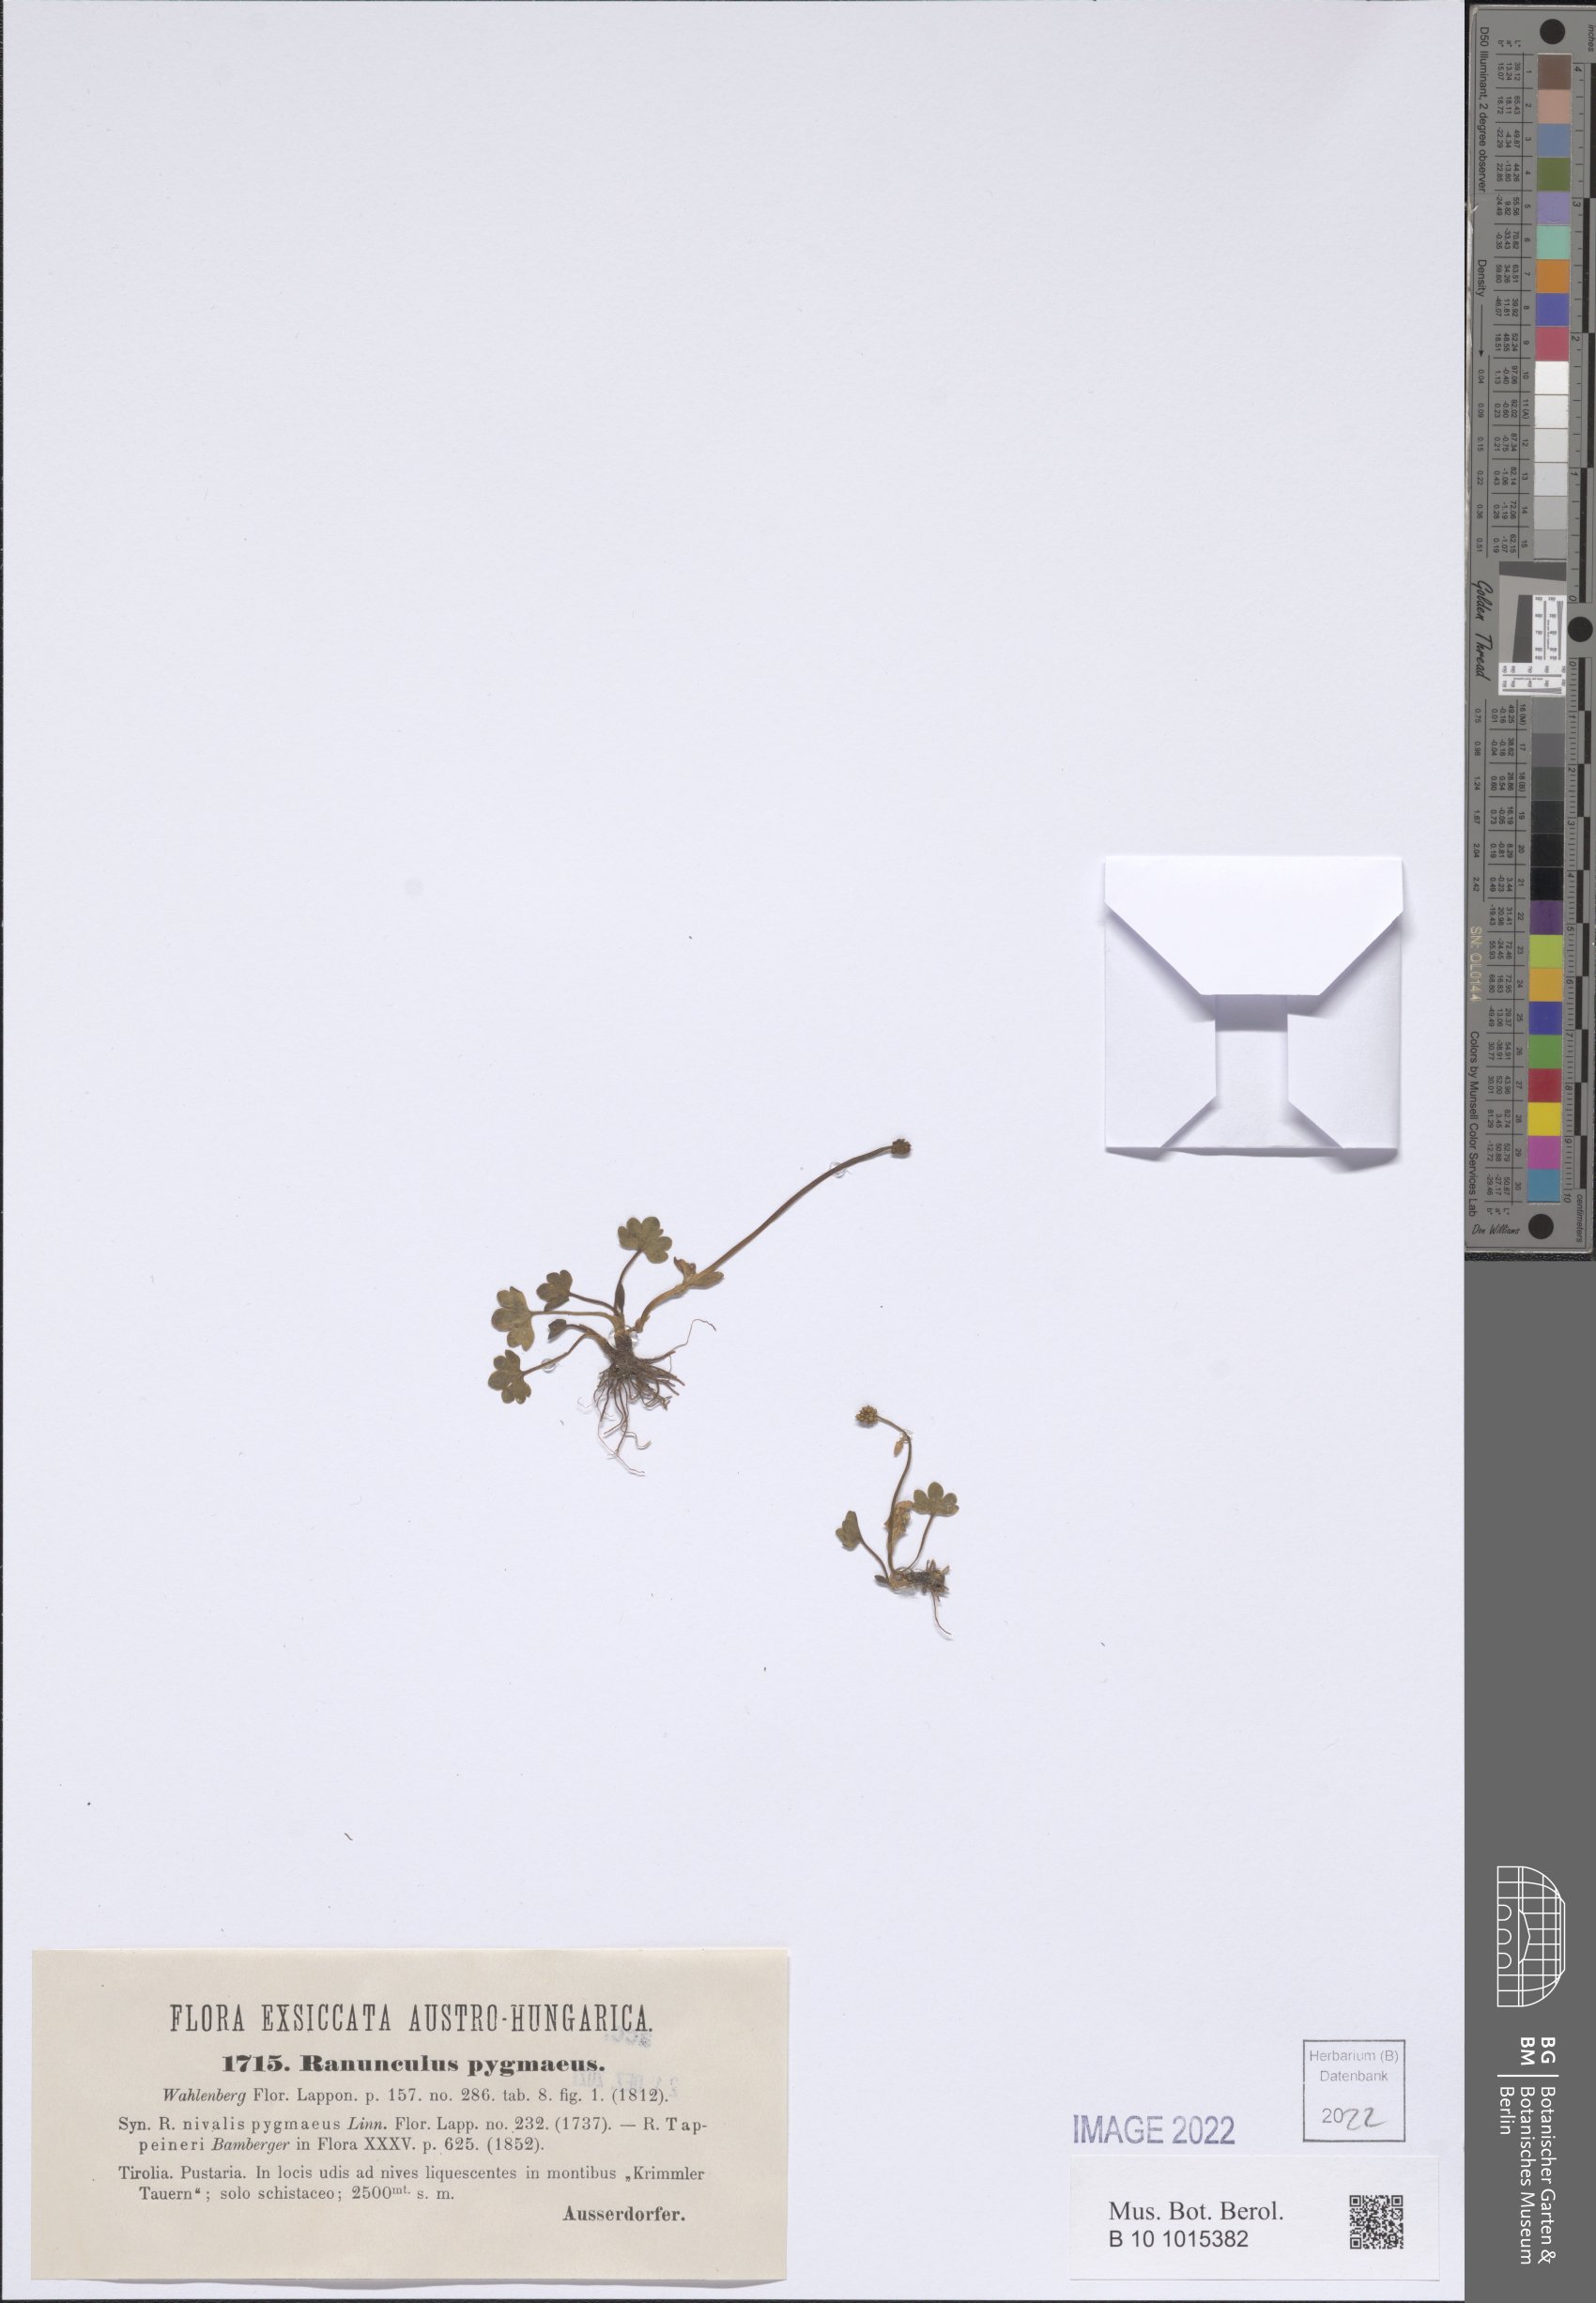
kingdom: Plantae
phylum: Tracheophyta
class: Magnoliopsida
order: Ranunculales
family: Ranunculaceae
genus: Ranunculus
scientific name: Ranunculus pygmaeus
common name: Dwarf buttercup
